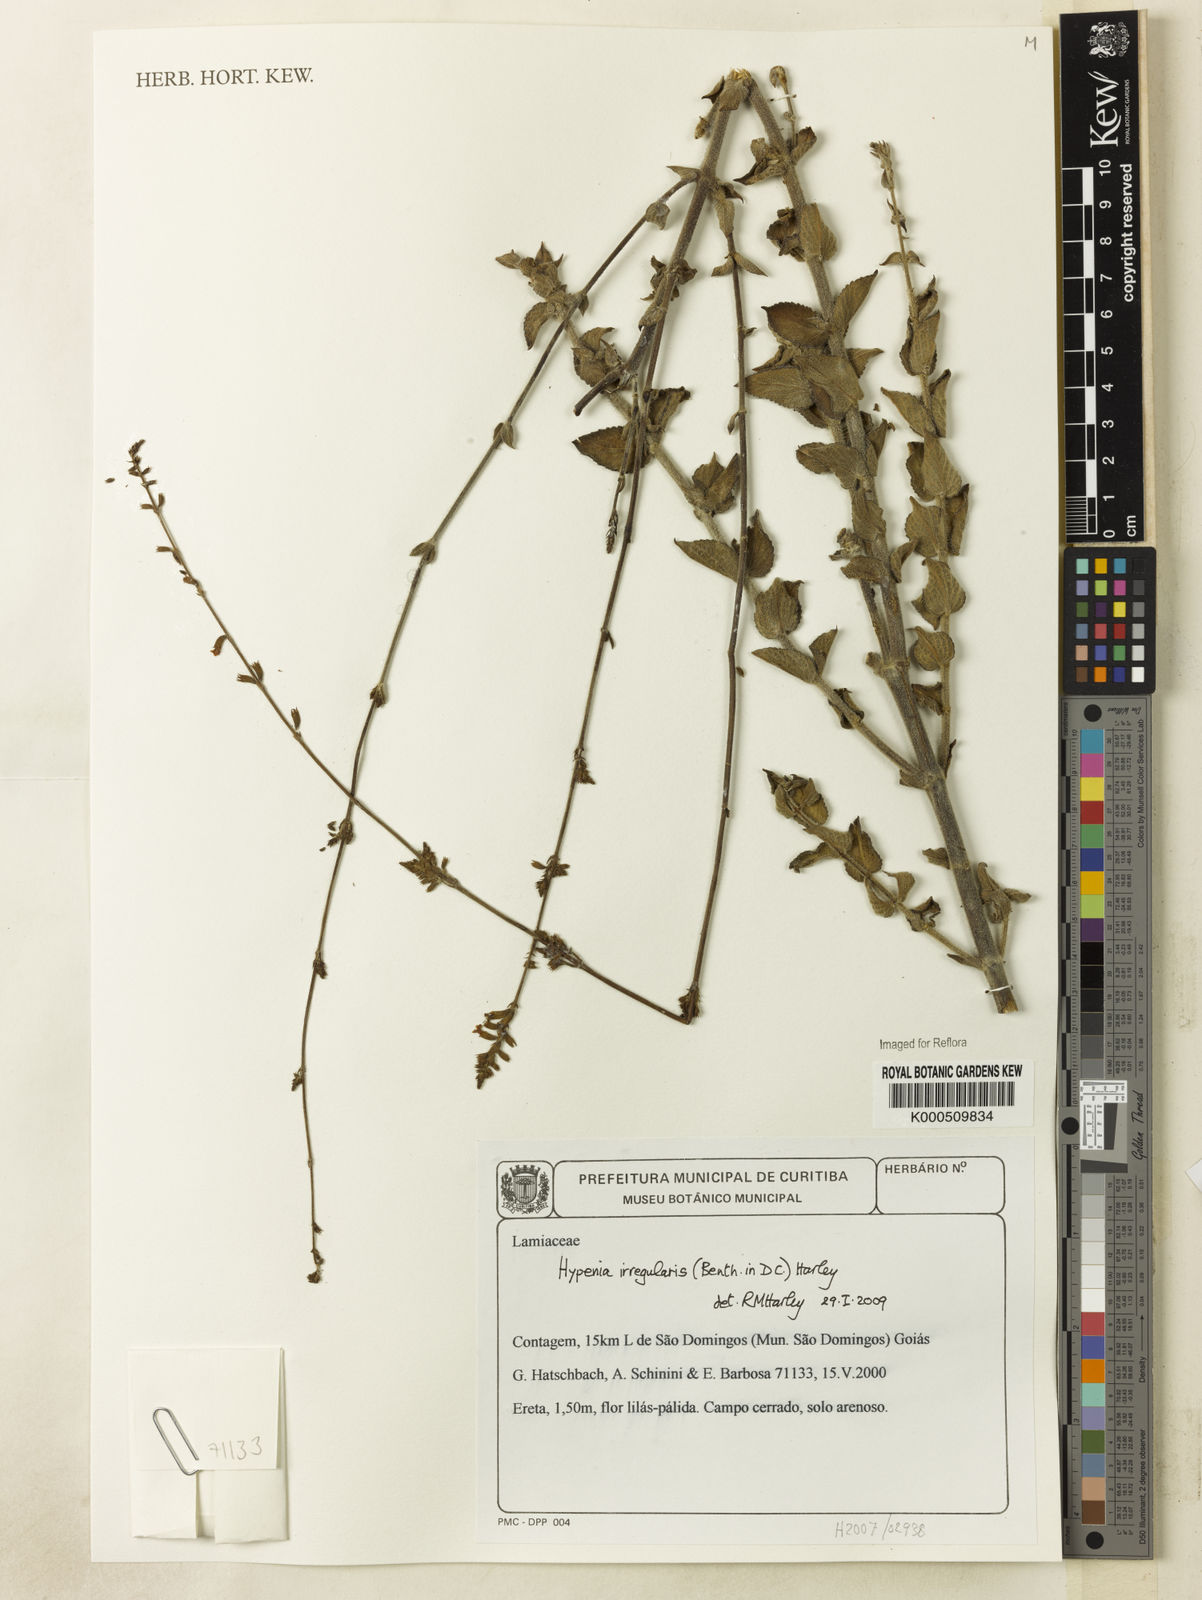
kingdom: Plantae
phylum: Tracheophyta
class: Magnoliopsida
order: Lamiales
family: Lamiaceae
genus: Hypenia
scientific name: Hypenia irregularis
